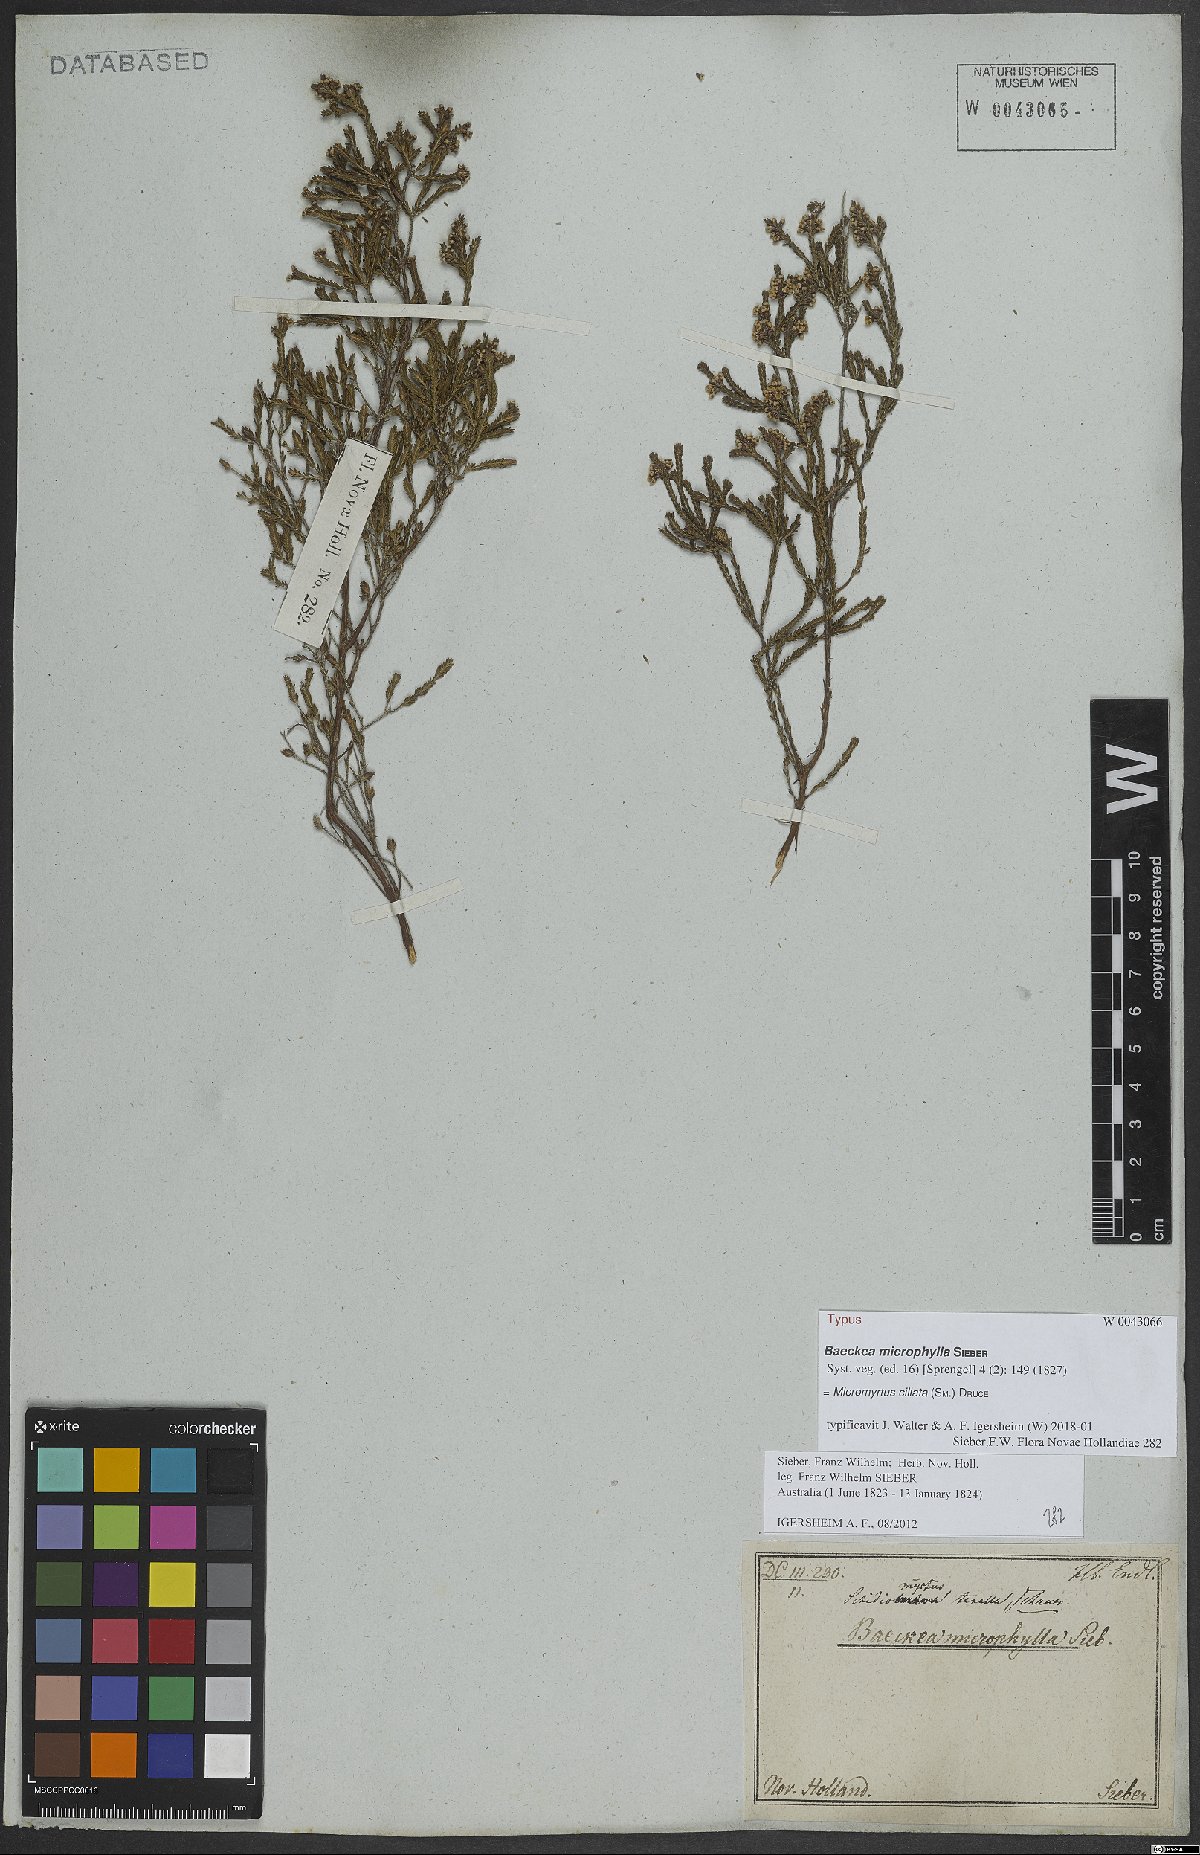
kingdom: Plantae
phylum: Tracheophyta
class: Magnoliopsida
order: Myrtales
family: Myrtaceae
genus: Micromyrtus
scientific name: Micromyrtus ciliata
